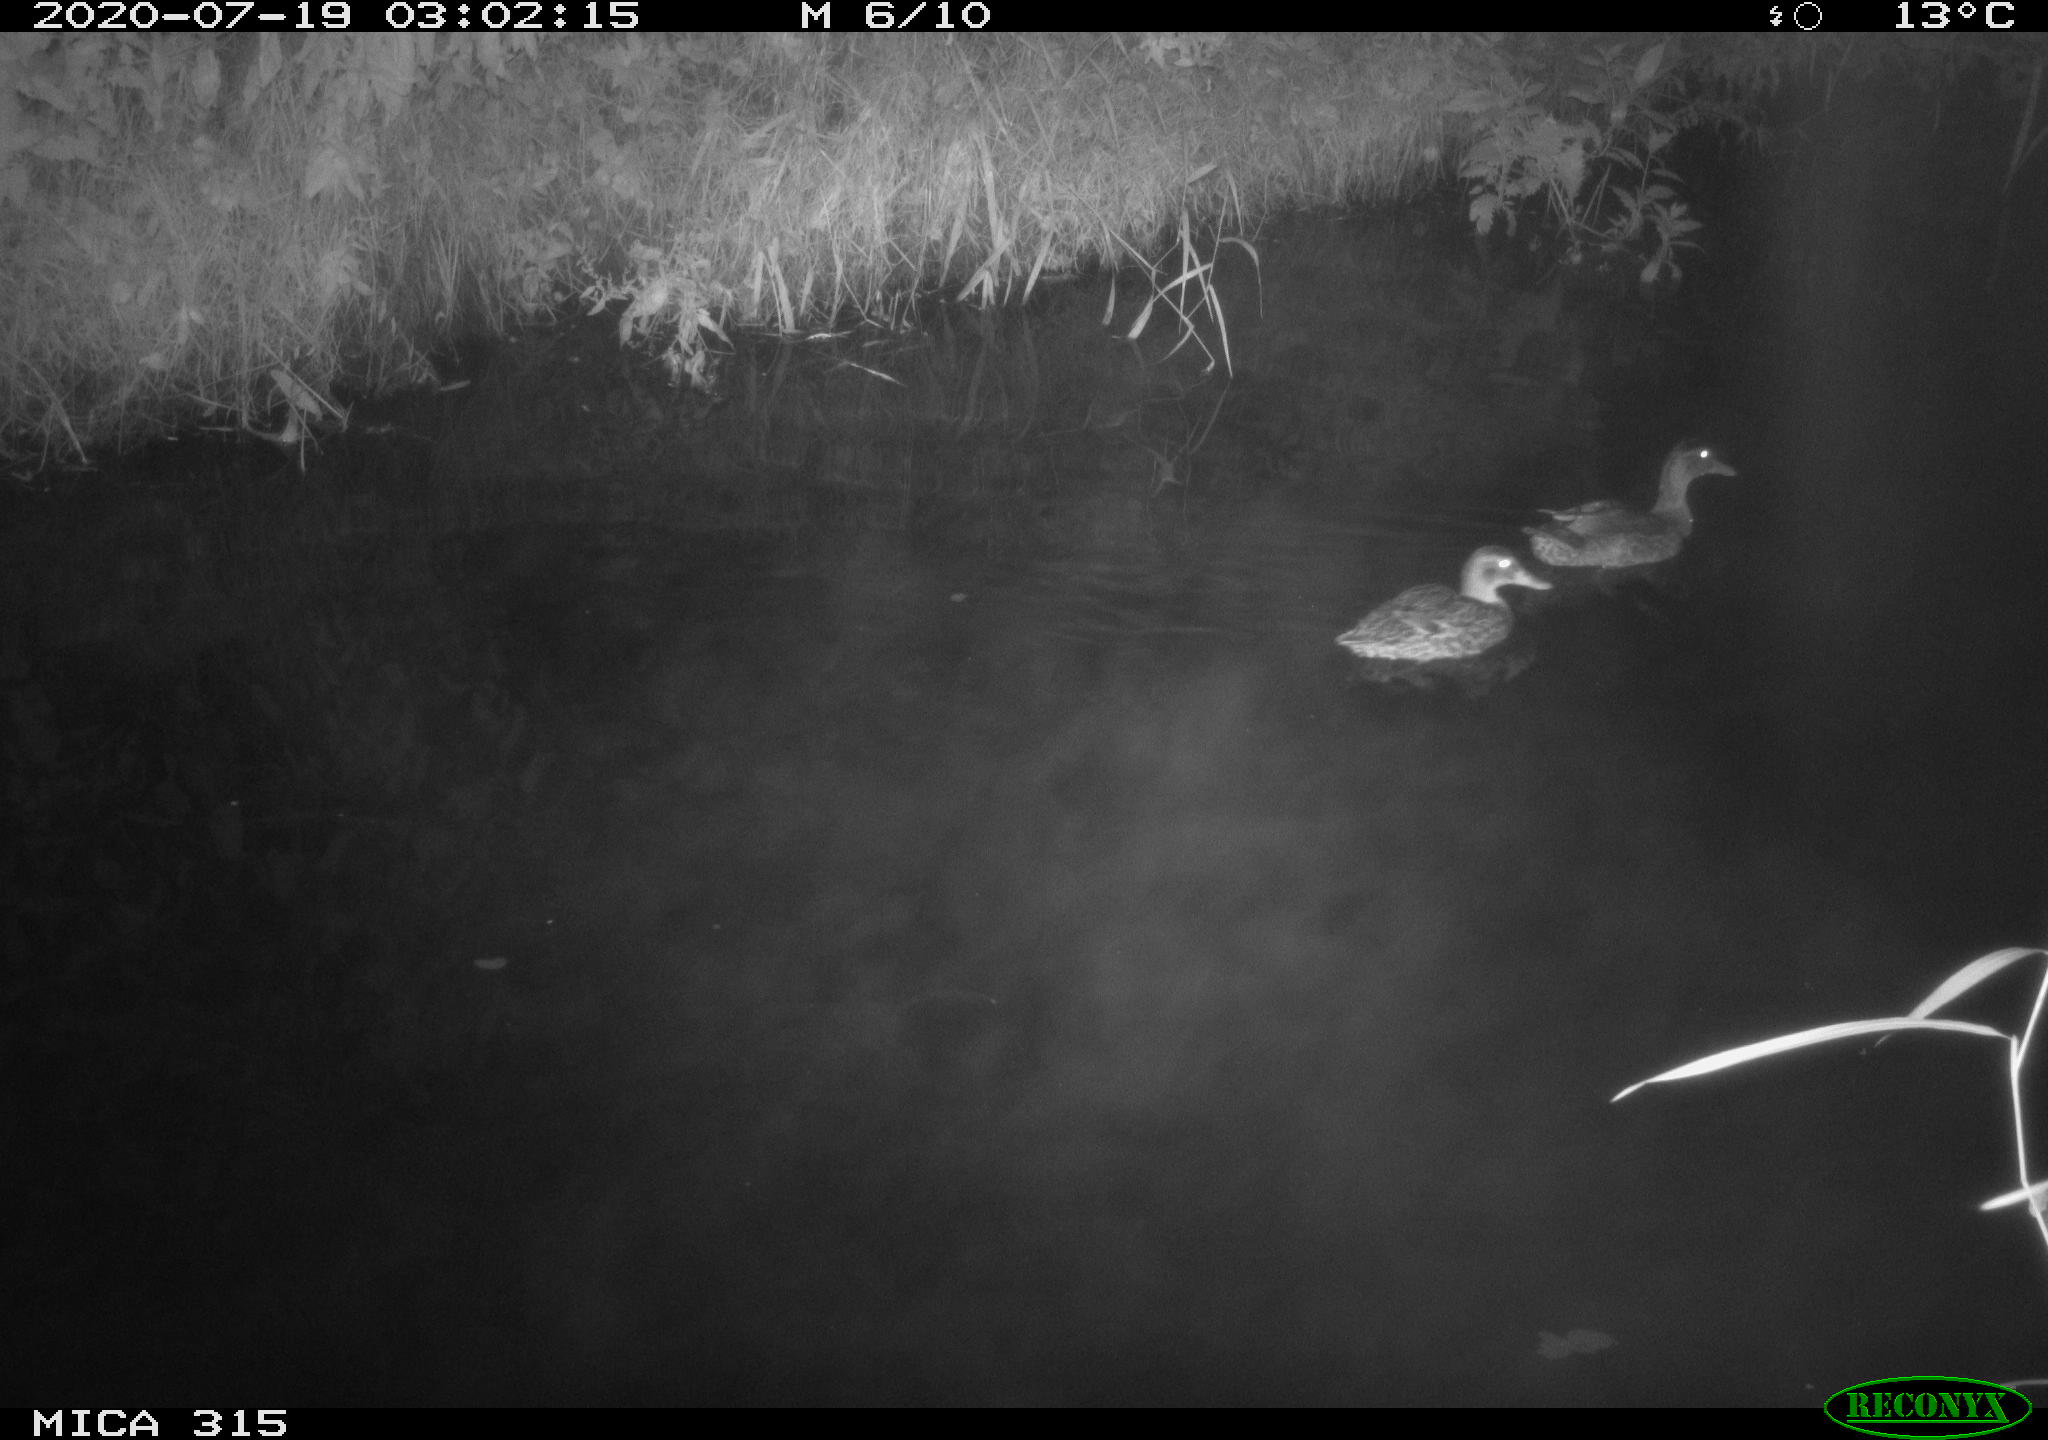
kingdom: Animalia
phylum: Chordata
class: Aves
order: Anseriformes
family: Anatidae
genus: Anas
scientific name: Anas platyrhynchos
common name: Mallard
